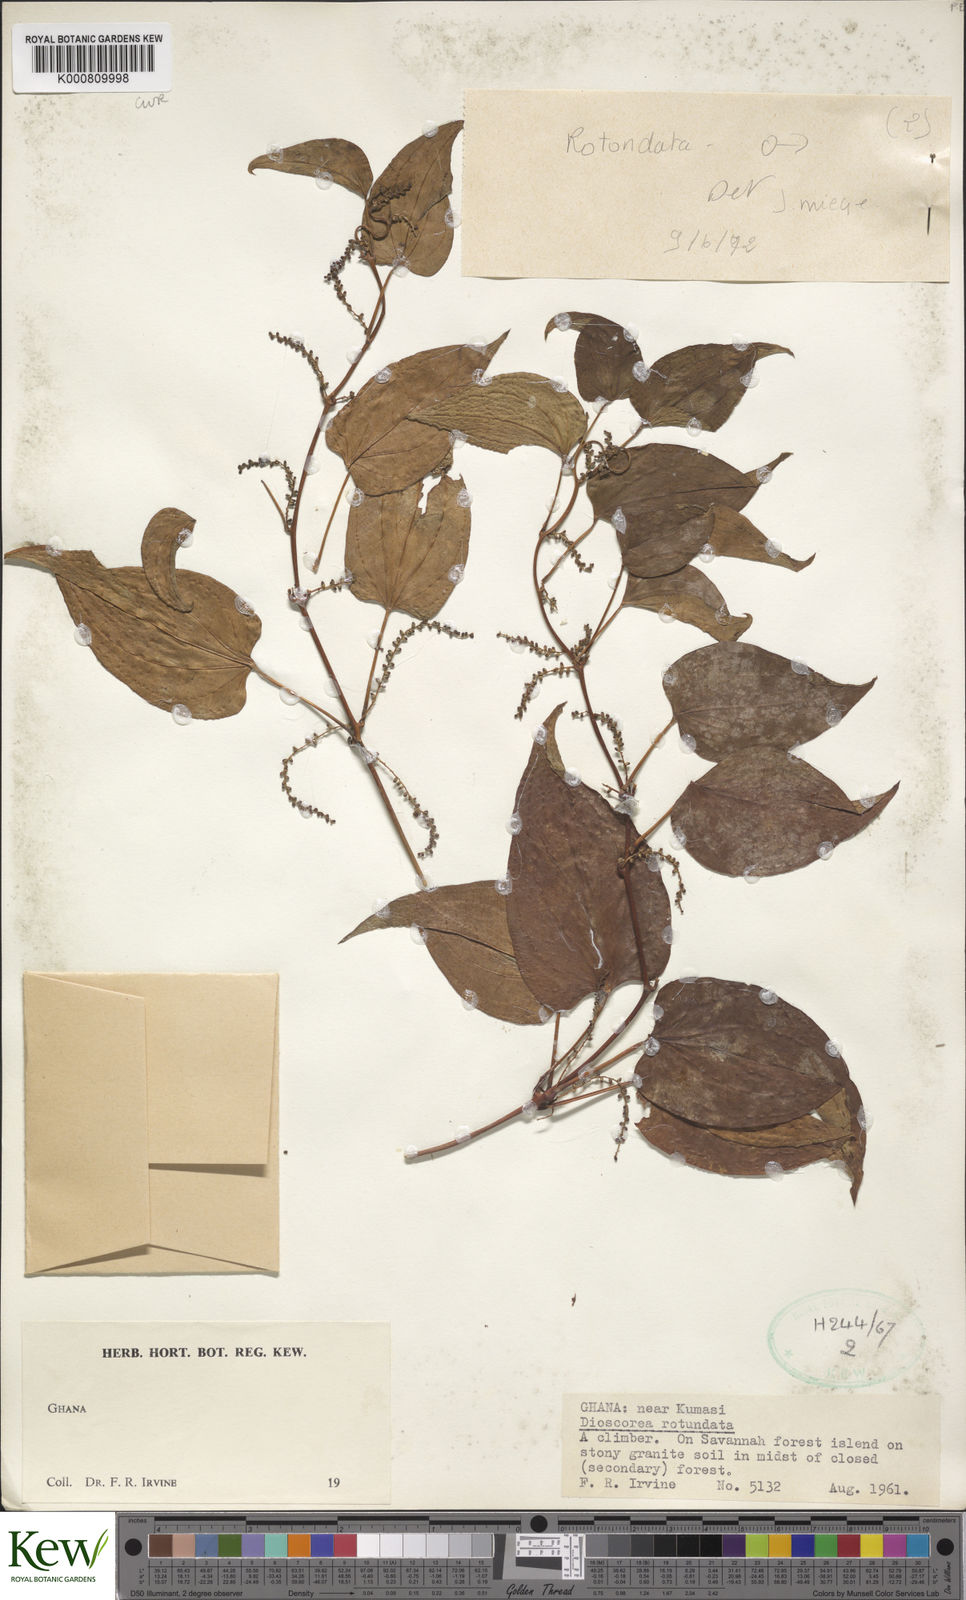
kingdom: Plantae
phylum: Tracheophyta
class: Liliopsida
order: Dioscoreales
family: Dioscoreaceae
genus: Dioscorea
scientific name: Dioscorea cayenensis
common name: Attoto yam
